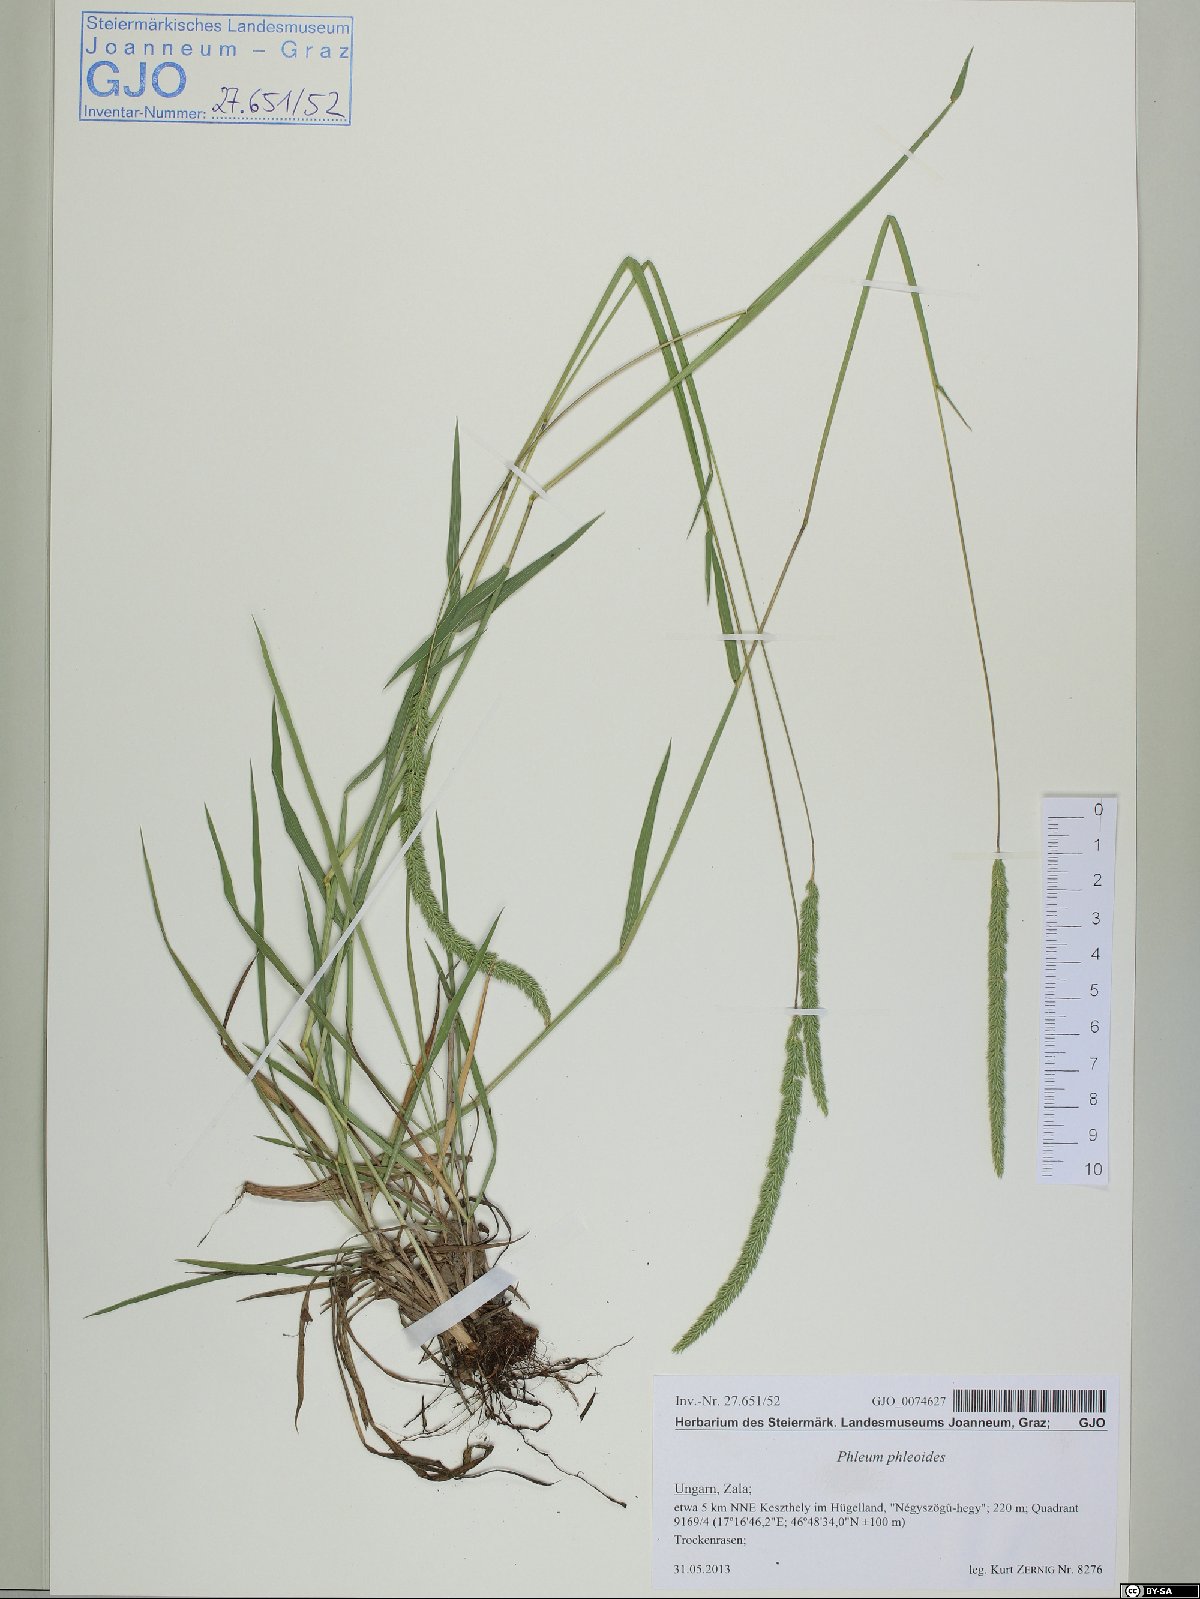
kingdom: Plantae
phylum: Tracheophyta
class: Liliopsida
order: Poales
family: Poaceae
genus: Phleum
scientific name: Phleum phleoides
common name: Purple-stem cat's-tail
